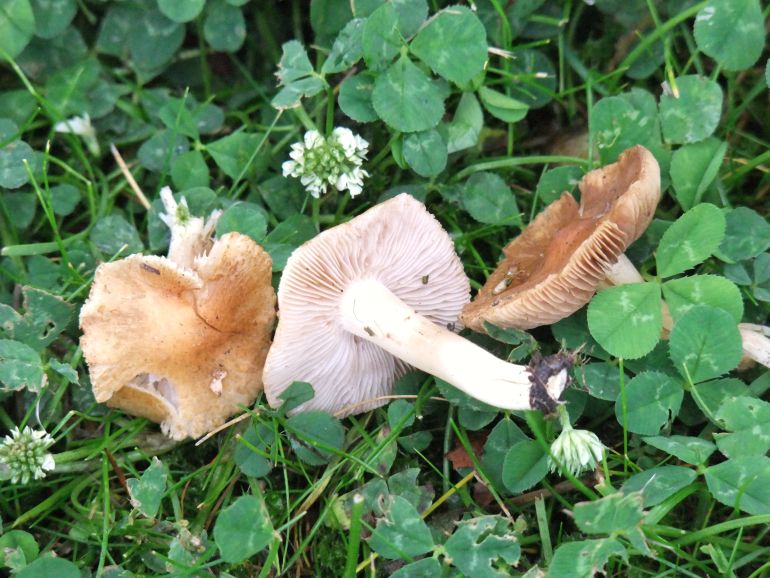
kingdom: Fungi
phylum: Basidiomycota
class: Agaricomycetes
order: Agaricales
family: Inocybaceae
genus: Inosperma
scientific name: Inosperma erubescens
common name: giftig trævlhat
